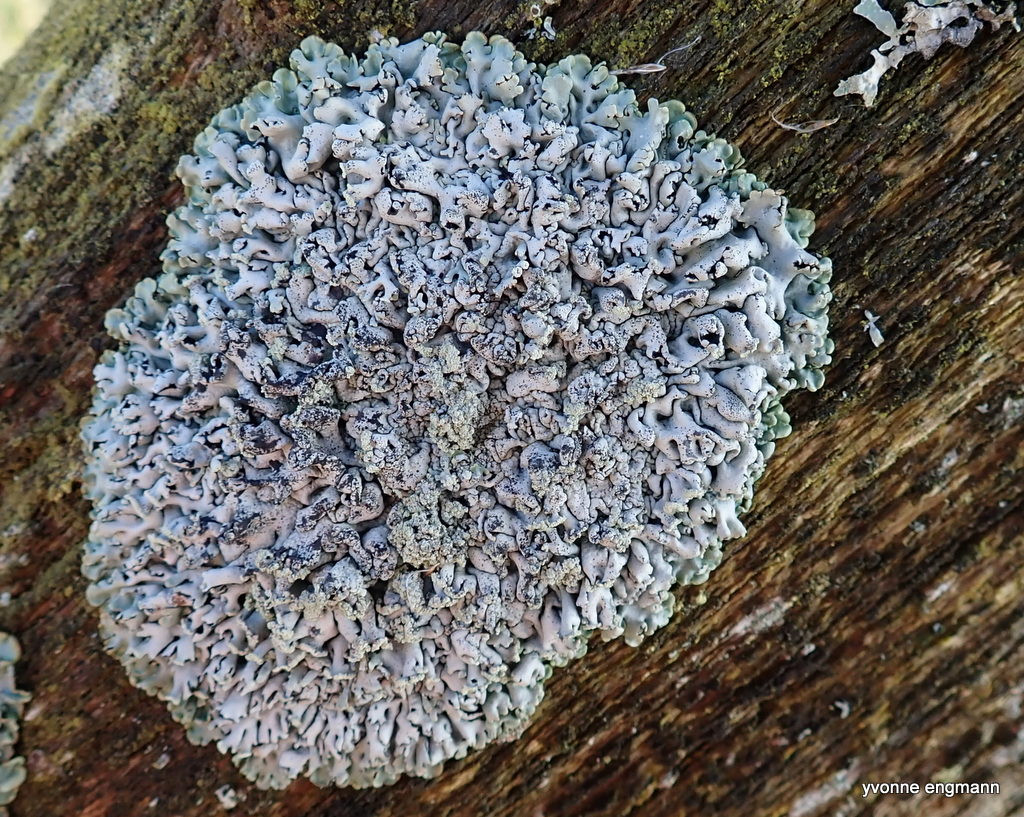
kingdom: Fungi
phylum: Ascomycota
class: Lecanoromycetes
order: Lecanorales
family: Parmeliaceae
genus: Hypogymnia
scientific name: Hypogymnia physodes
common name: almindelig kvistlav
